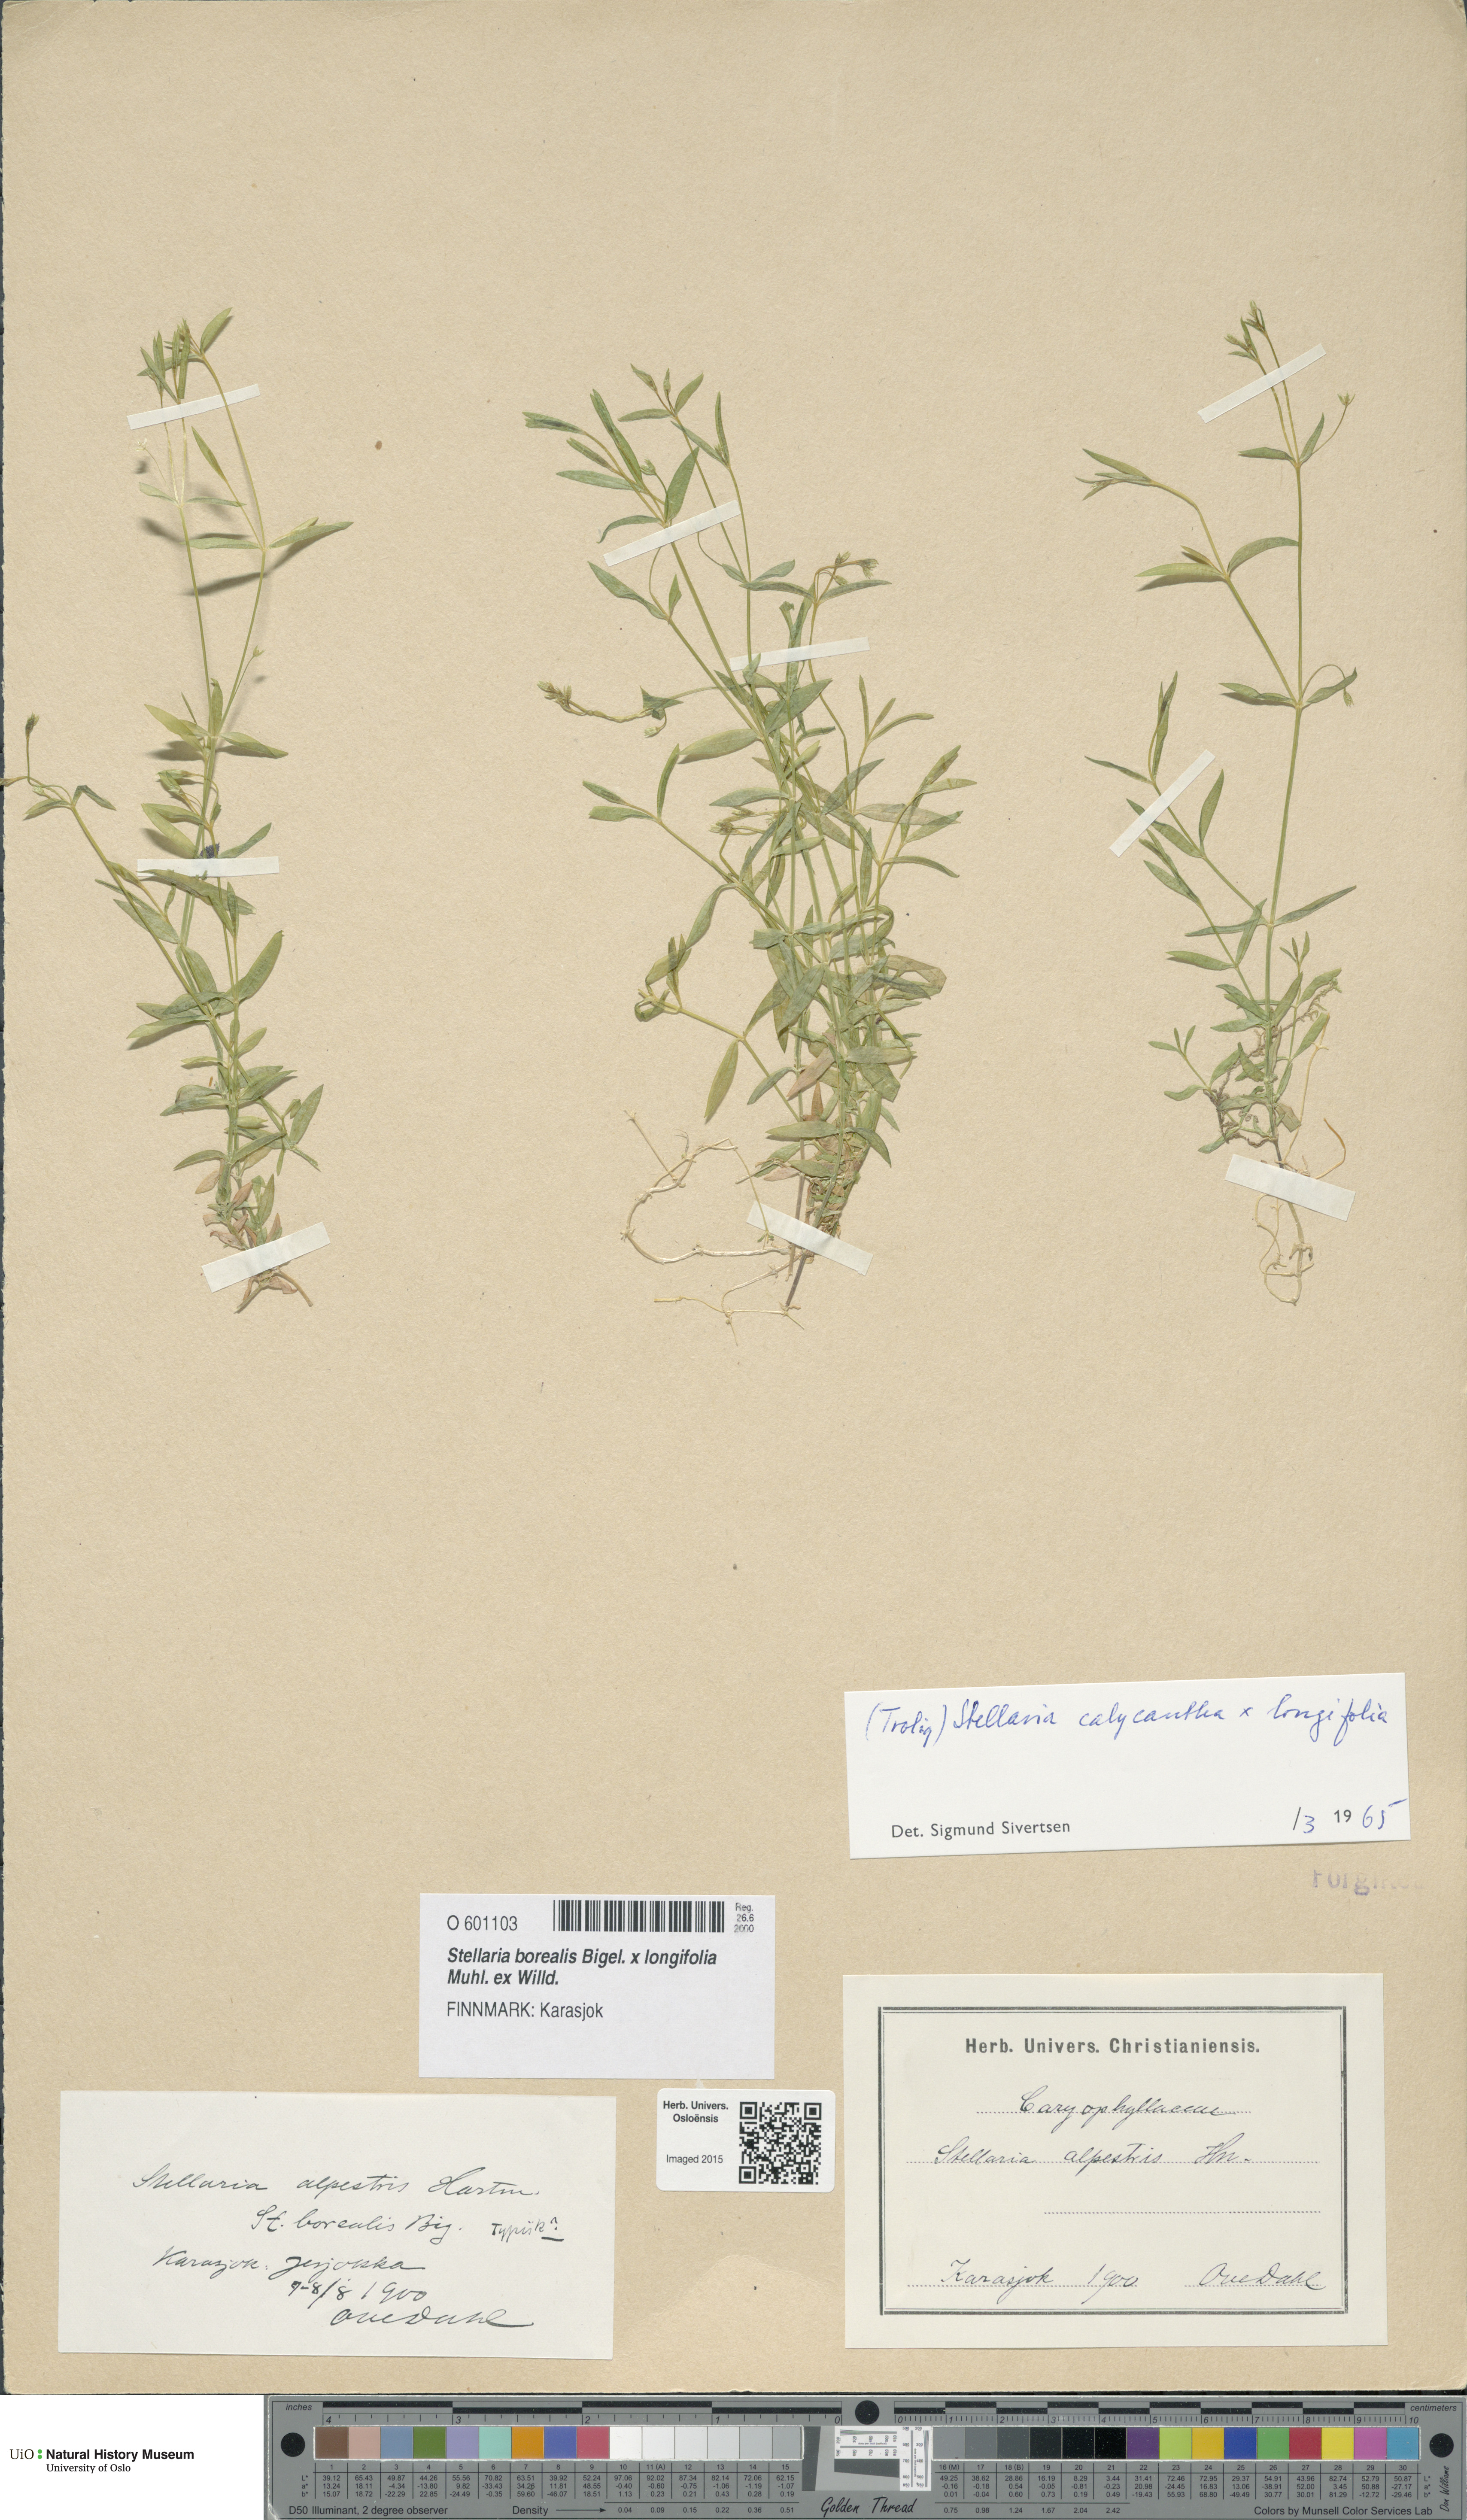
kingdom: Plantae
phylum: Tracheophyta
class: Magnoliopsida
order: Caryophyllales
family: Caryophyllaceae
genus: Stellaria
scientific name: Stellaria
